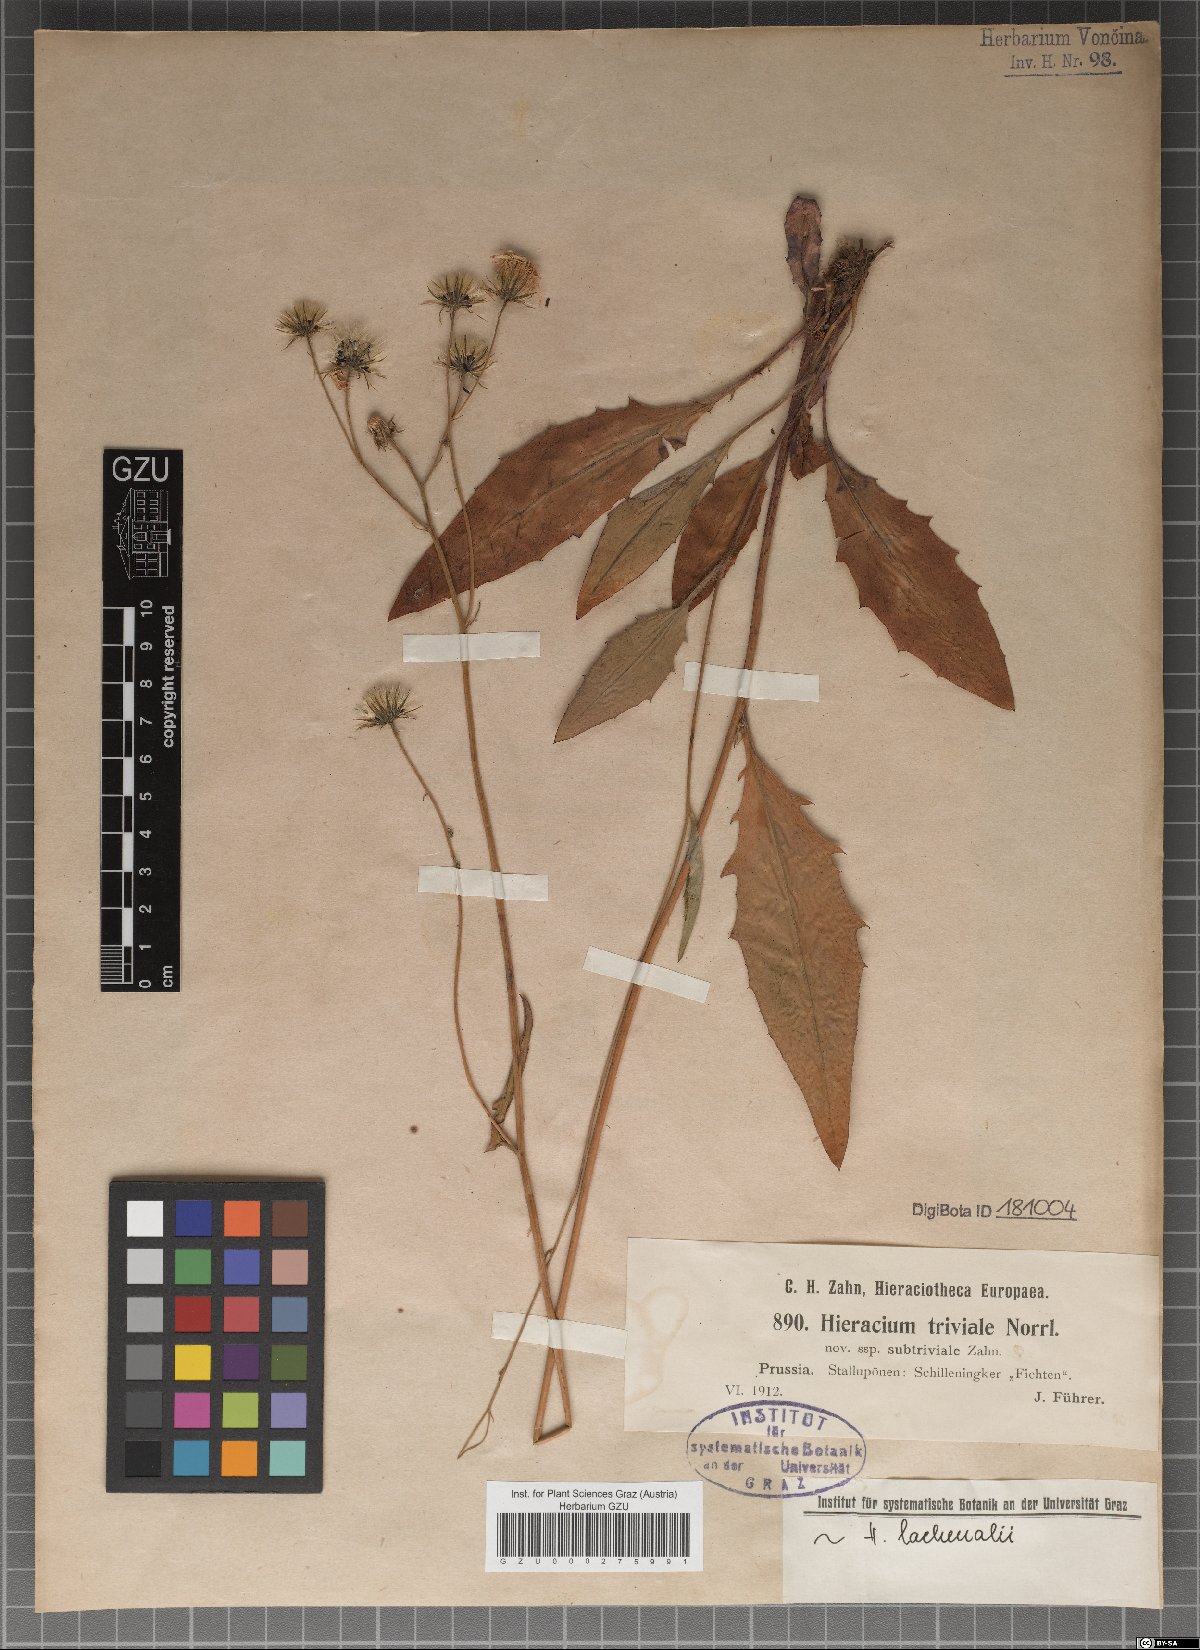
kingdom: Plantae
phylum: Tracheophyta
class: Magnoliopsida
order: Asterales
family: Asteraceae
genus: Hieracium
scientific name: Hieracium levicaule
